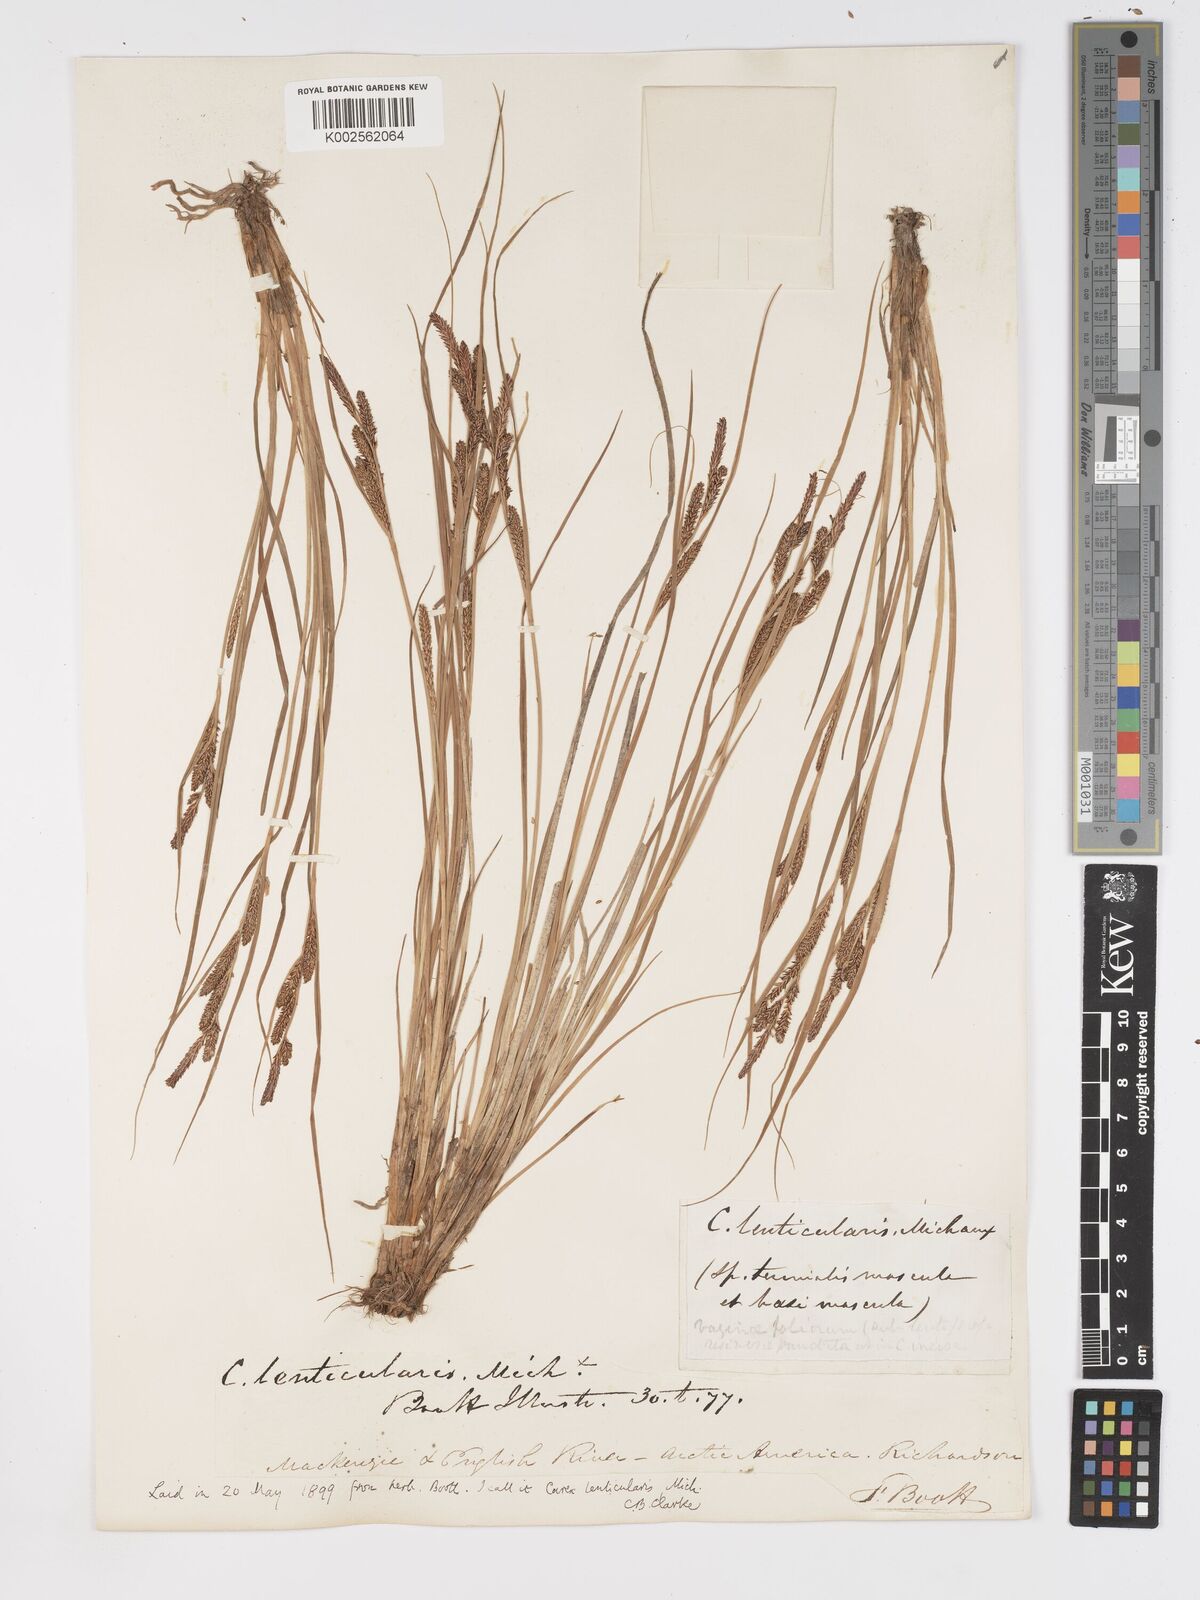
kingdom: Plantae
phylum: Tracheophyta
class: Liliopsida
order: Poales
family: Cyperaceae
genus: Carex
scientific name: Carex lenticularis
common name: Lakeshore sedge
